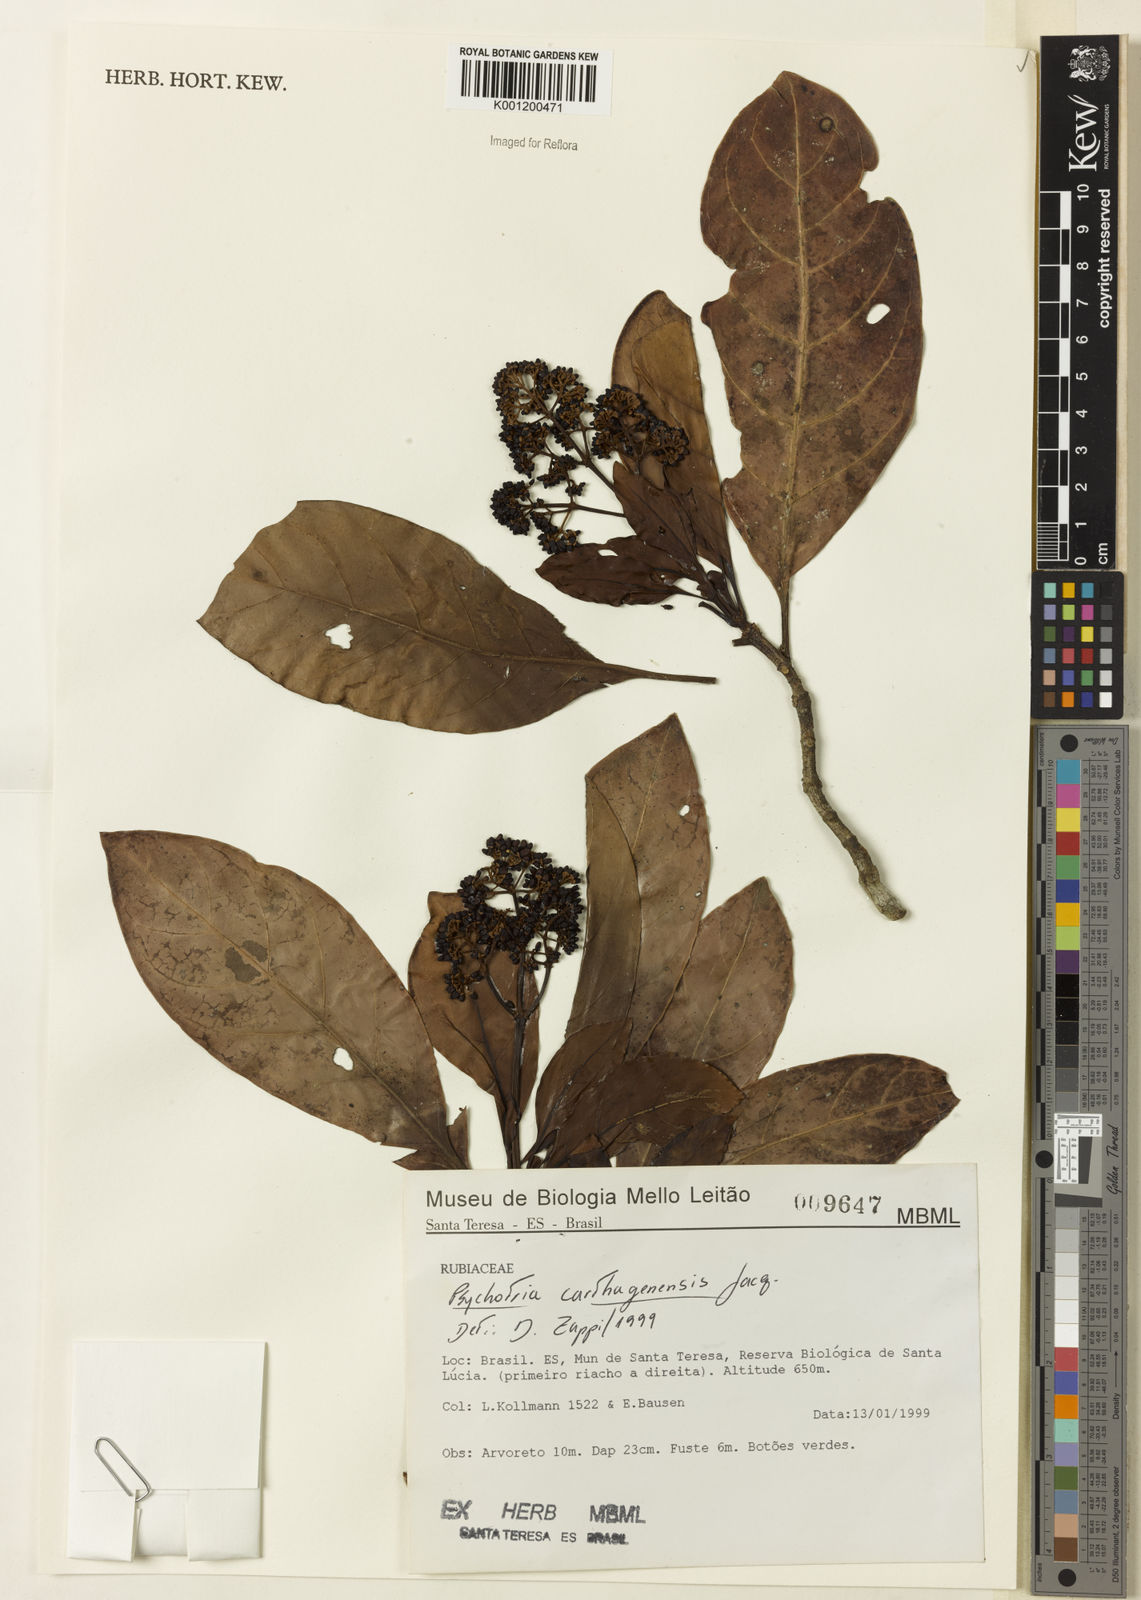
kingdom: Plantae
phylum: Tracheophyta
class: Magnoliopsida
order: Gentianales
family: Rubiaceae
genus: Psychotria
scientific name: Psychotria carthagenensis
